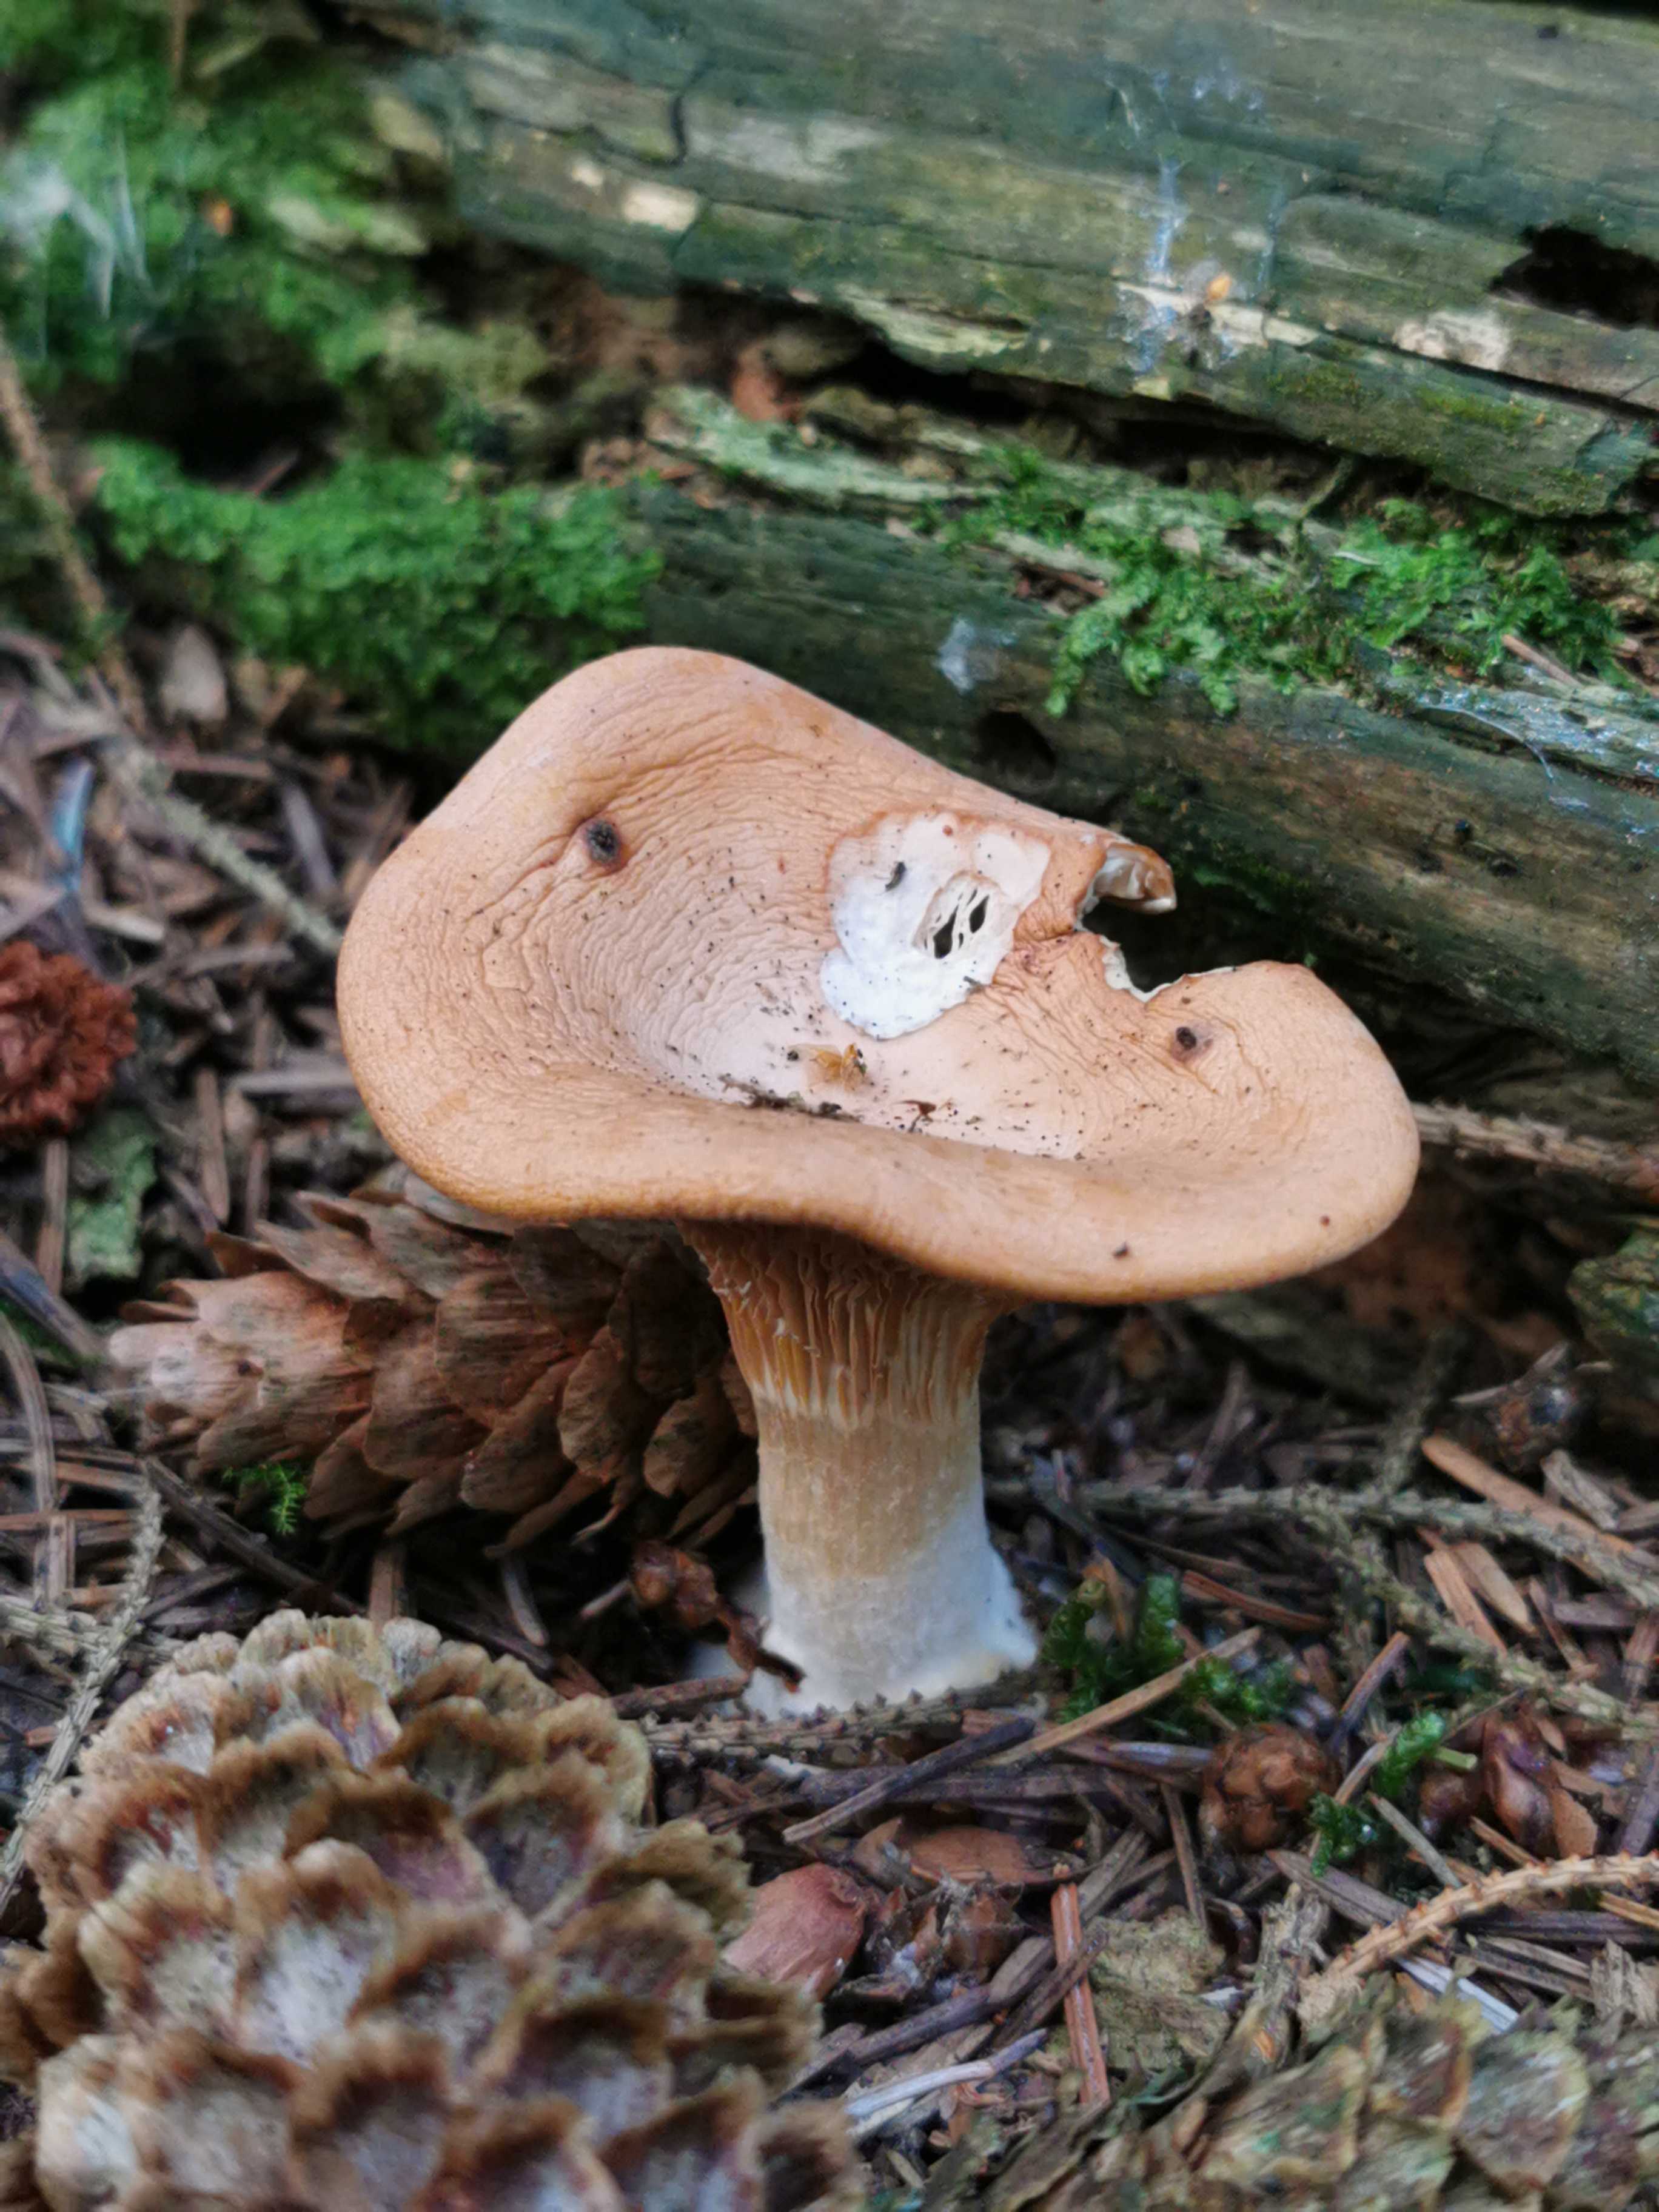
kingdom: Fungi
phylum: Basidiomycota
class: Agaricomycetes
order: Agaricales
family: Tricholomataceae
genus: Paralepista
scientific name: Paralepista
